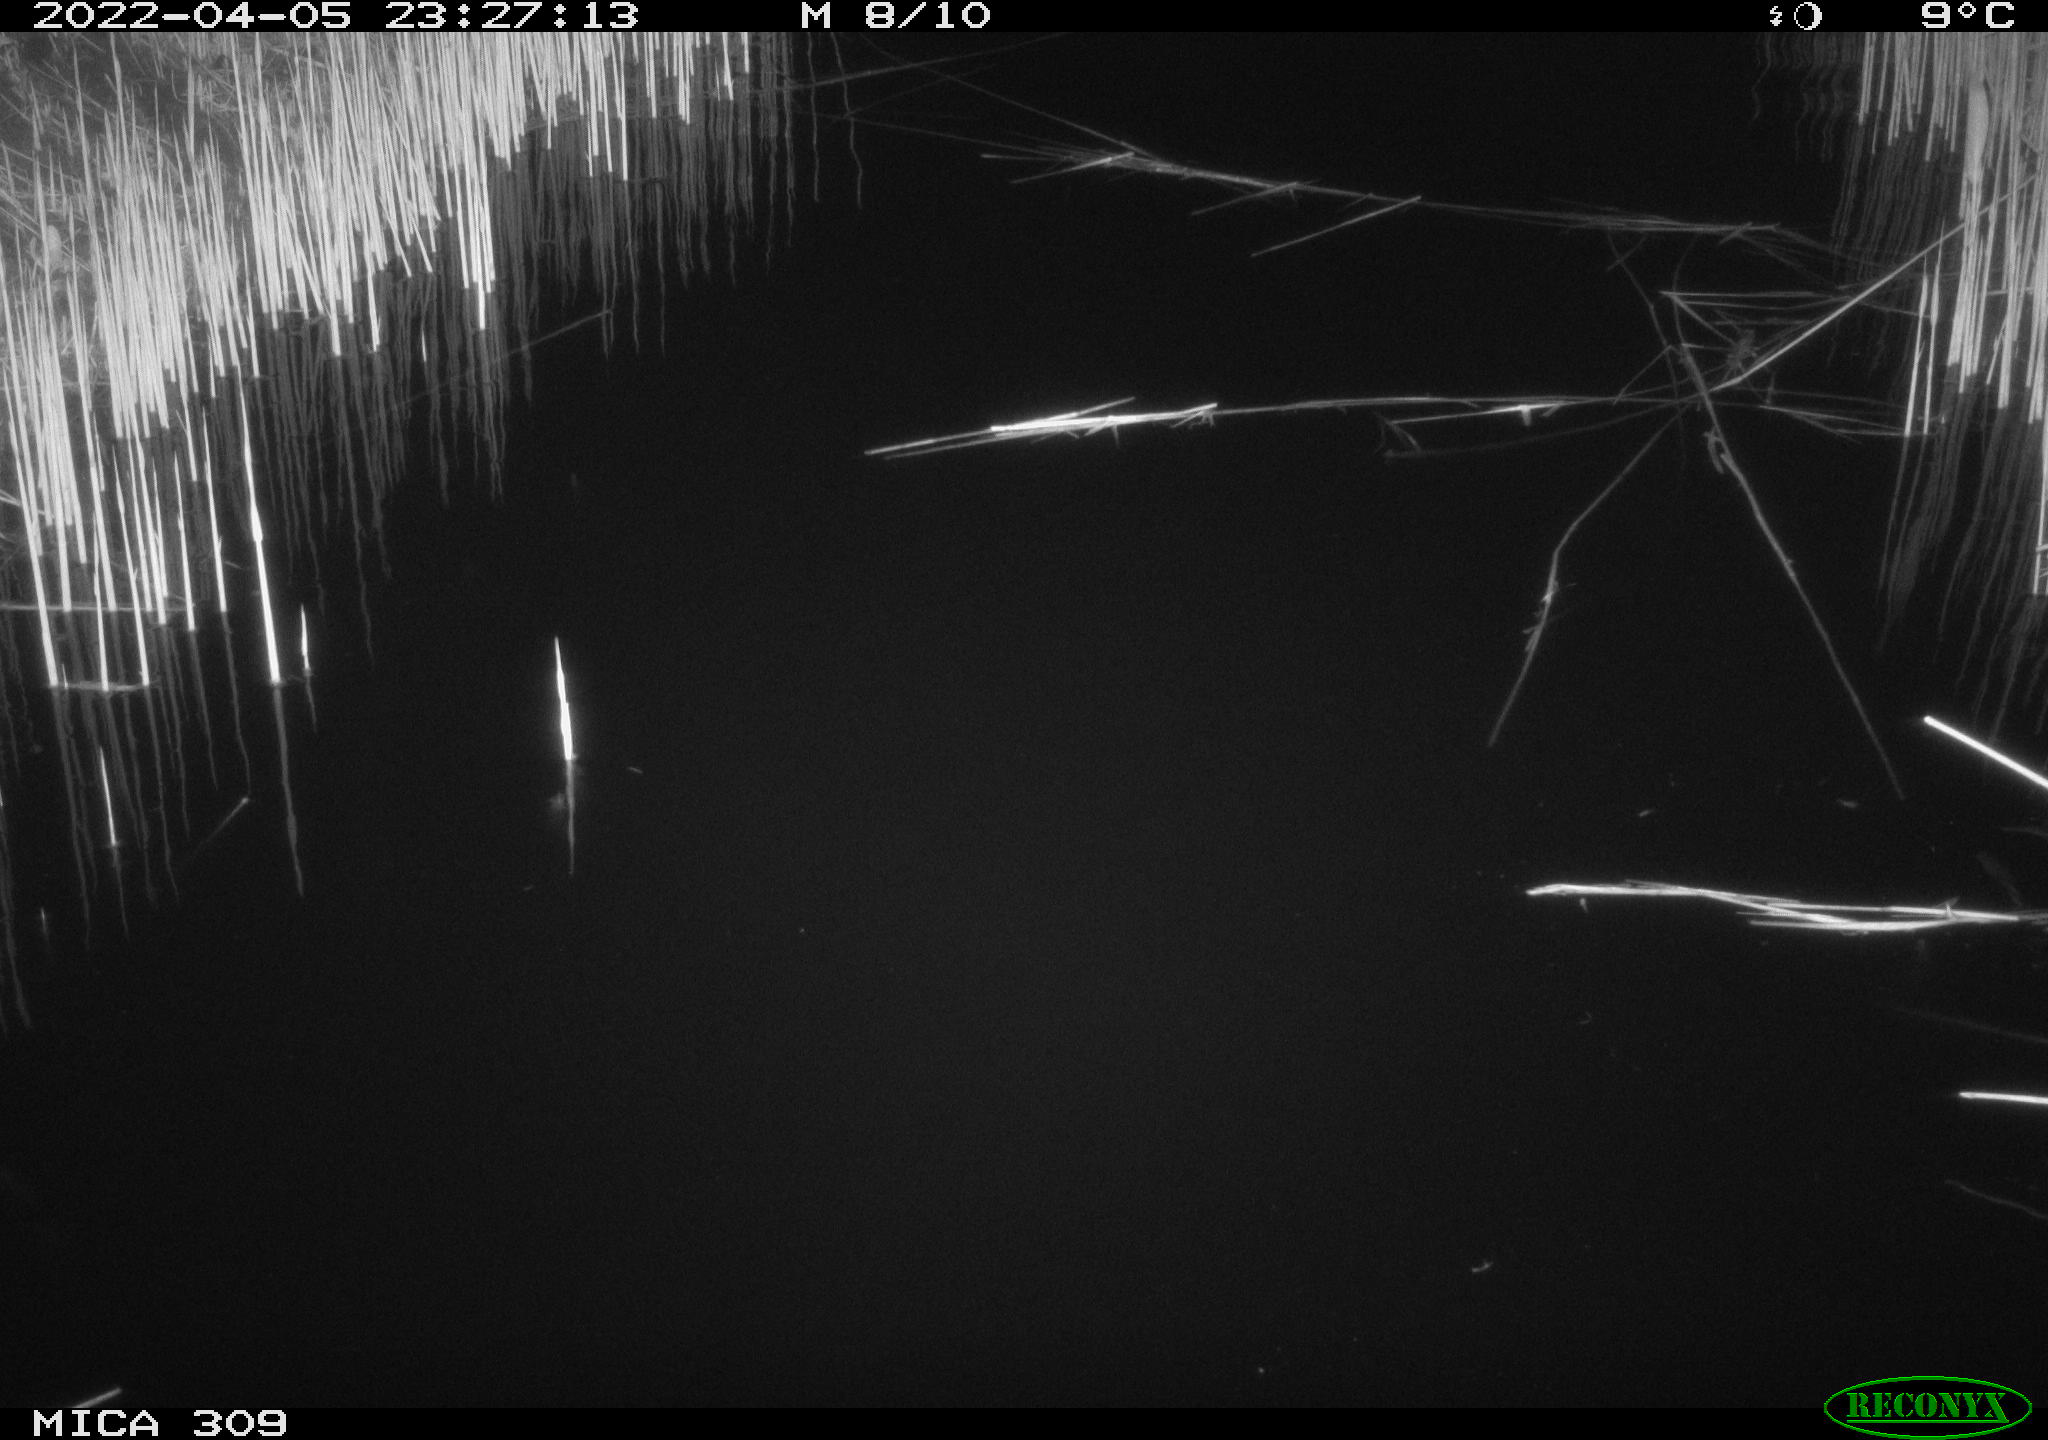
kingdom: Animalia
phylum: Chordata
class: Mammalia
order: Rodentia
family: Muridae
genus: Rattus
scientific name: Rattus norvegicus
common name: Brown rat
